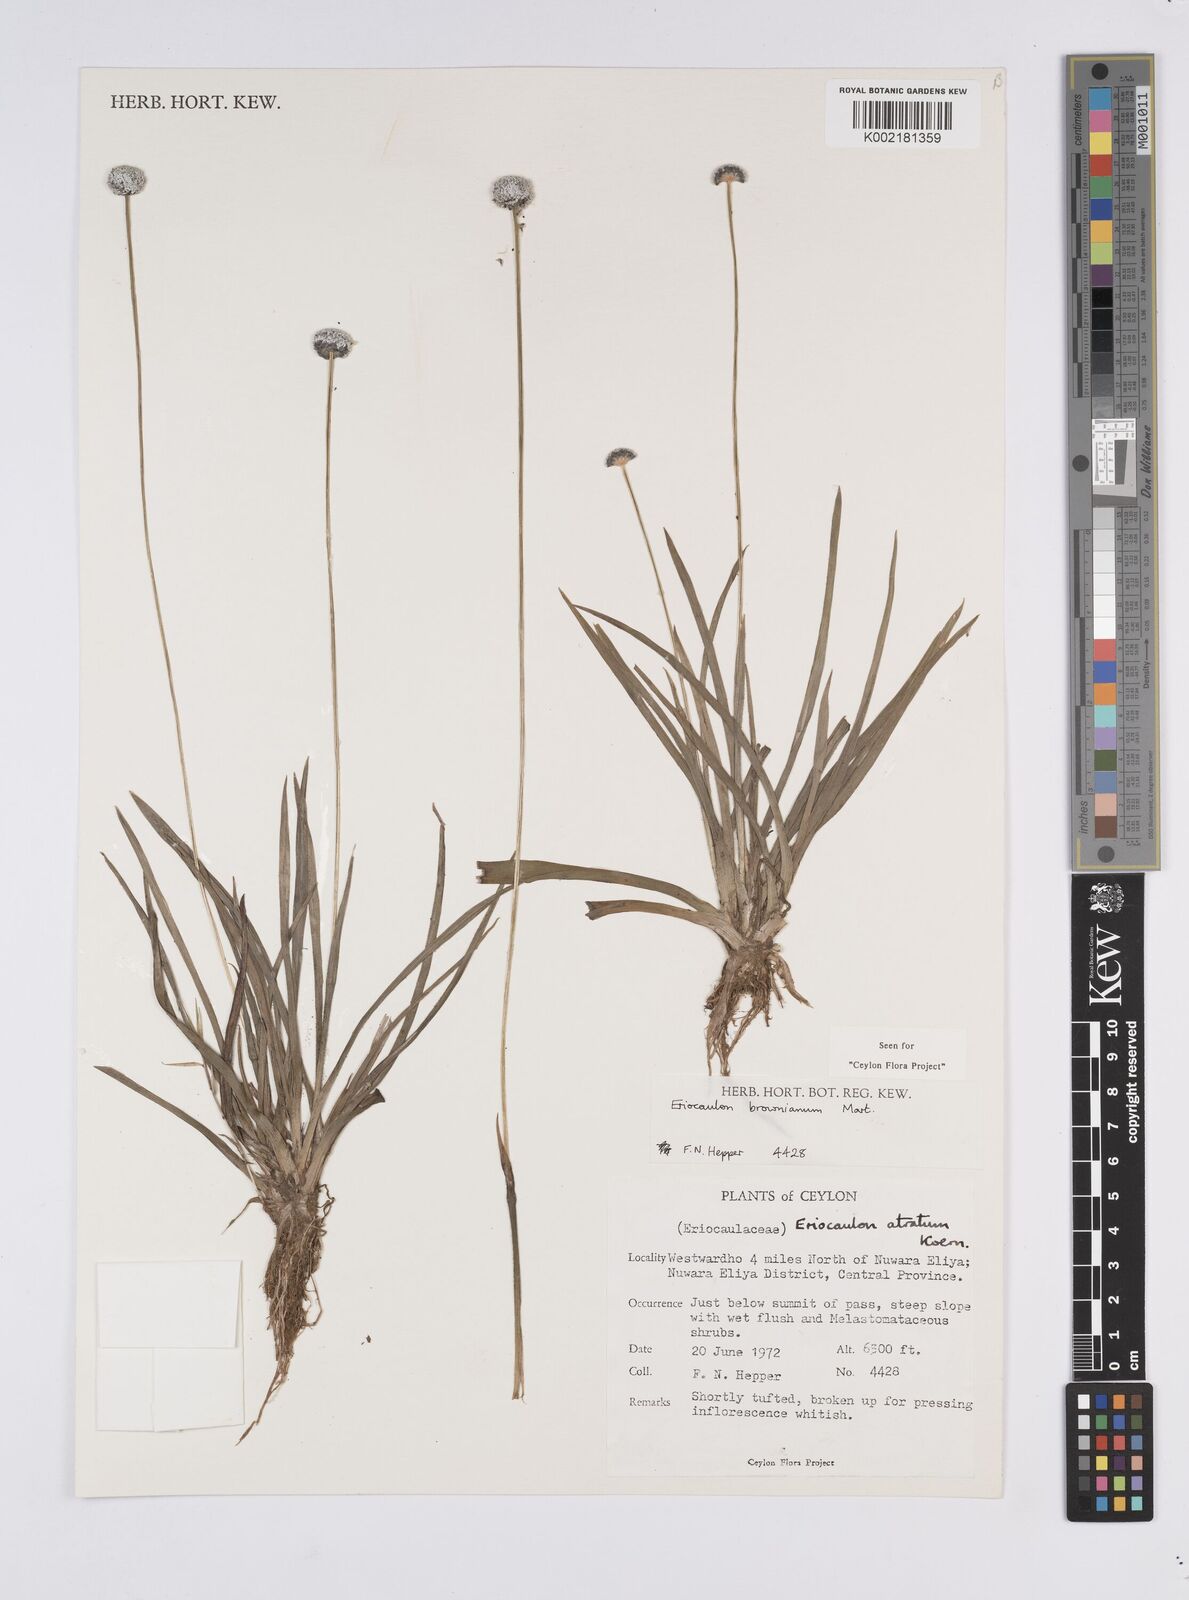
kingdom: Plantae
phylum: Tracheophyta
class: Liliopsida
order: Poales
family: Eriocaulaceae
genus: Eriocaulon
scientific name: Eriocaulon brownianum
